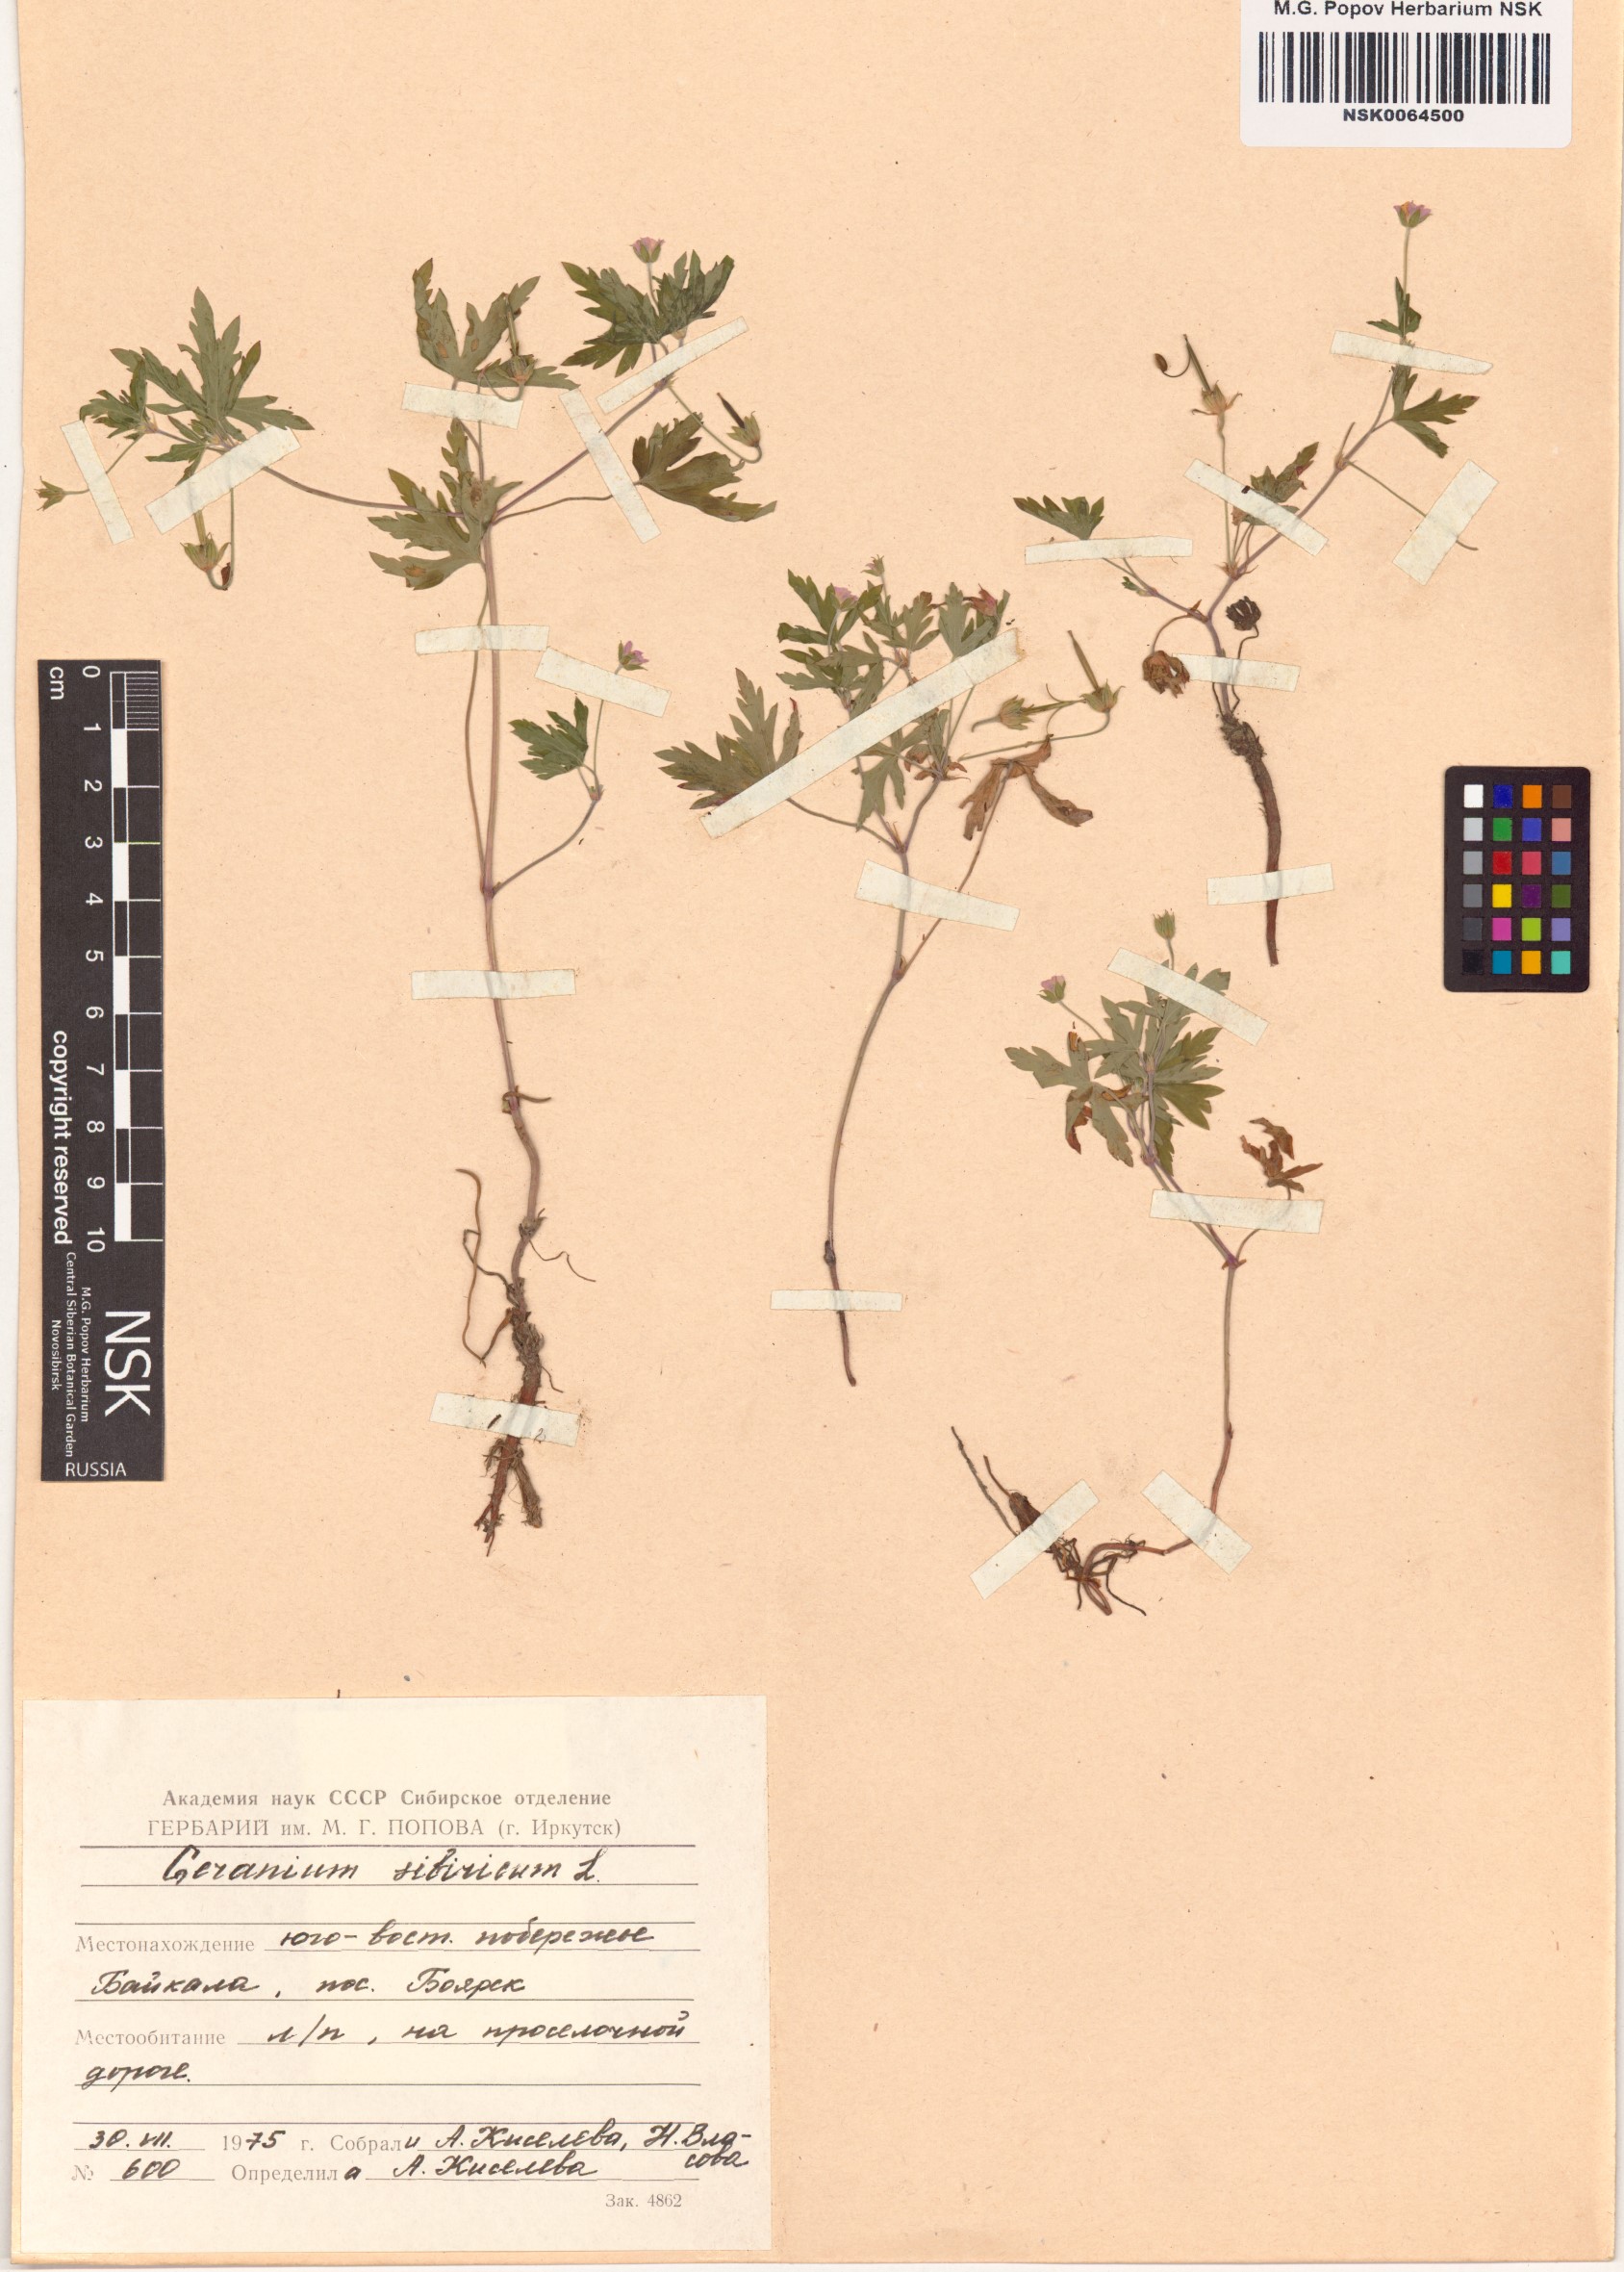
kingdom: Plantae
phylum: Tracheophyta
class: Magnoliopsida
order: Geraniales
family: Geraniaceae
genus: Geranium
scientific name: Geranium sibiricum
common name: Siberian crane's-bill
